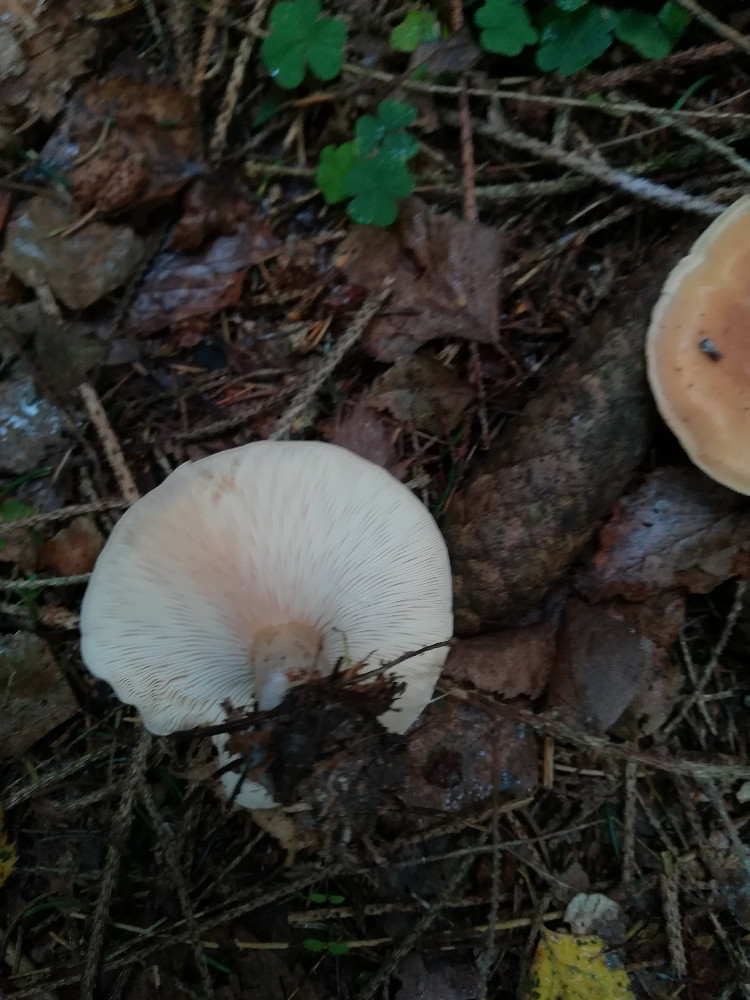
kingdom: Fungi
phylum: Basidiomycota
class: Agaricomycetes
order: Agaricales
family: Tricholomataceae
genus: Paralepista
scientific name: Paralepista flaccida
